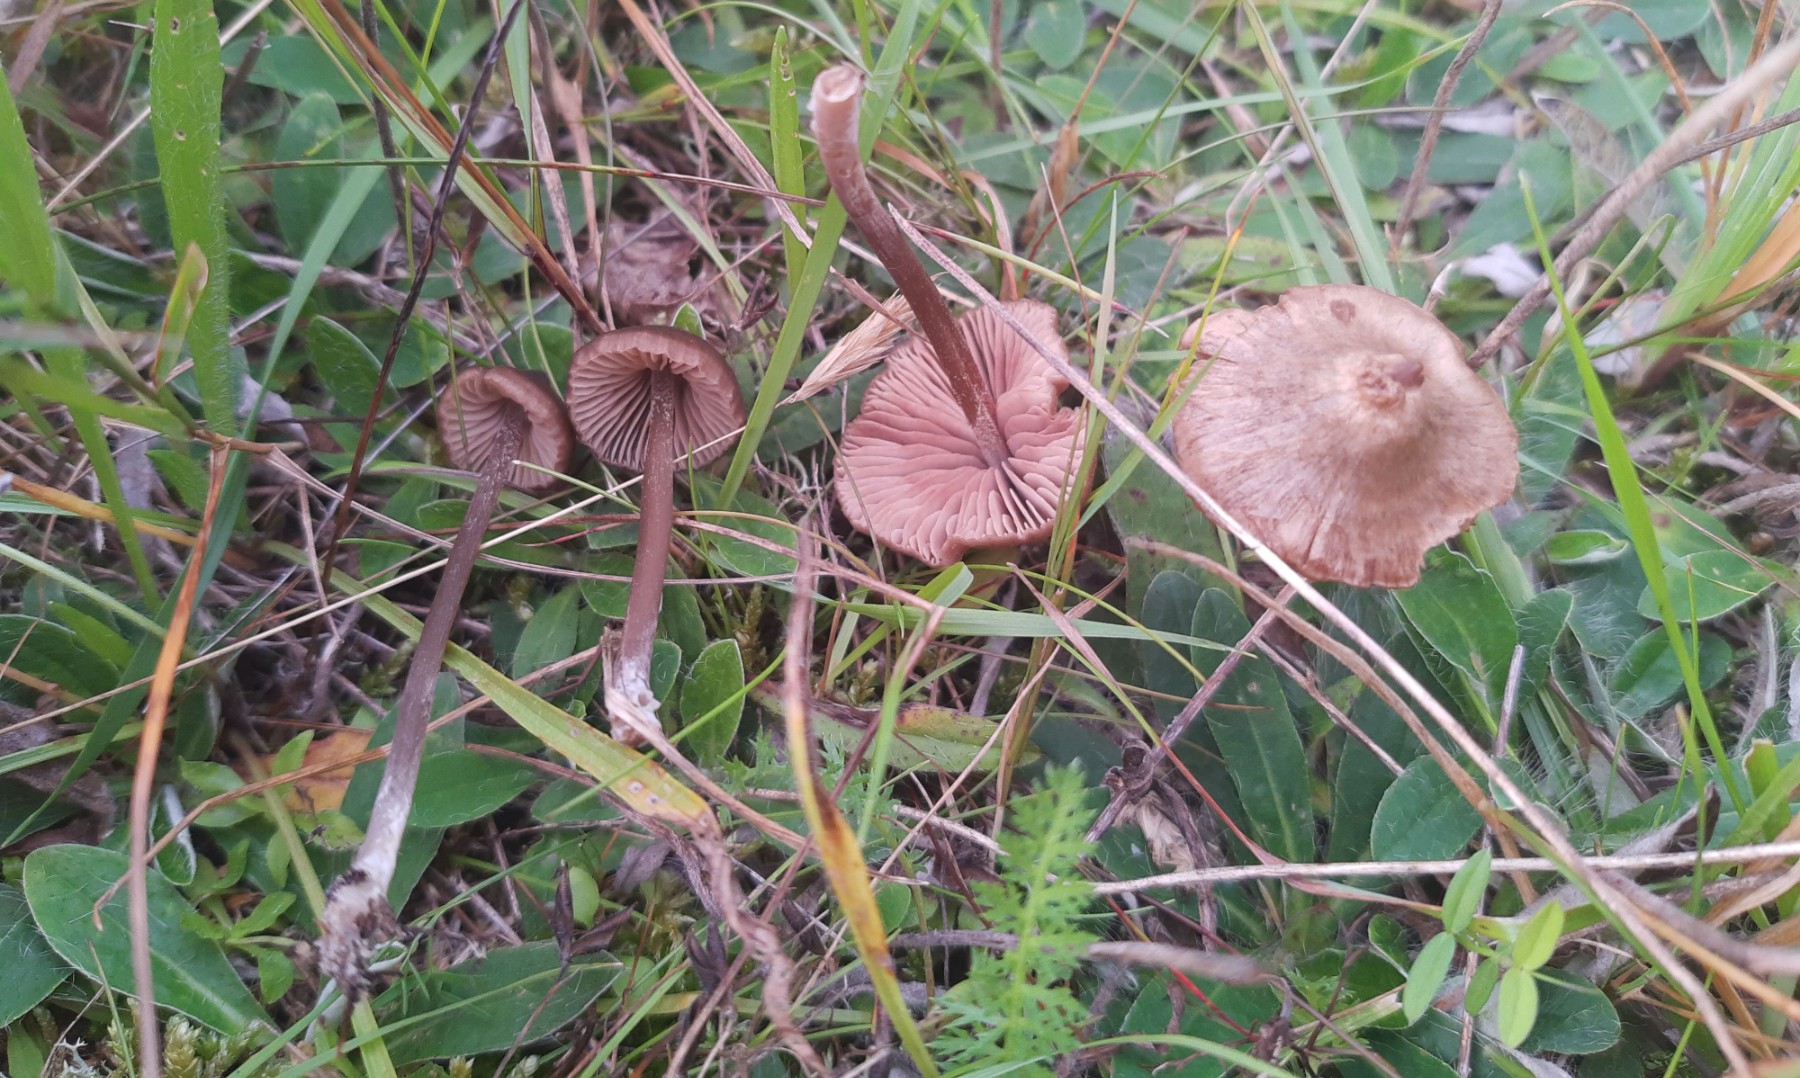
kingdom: Fungi
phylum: Basidiomycota
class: Agaricomycetes
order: Agaricales
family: Entolomataceae
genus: Entoloma
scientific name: Entoloma
